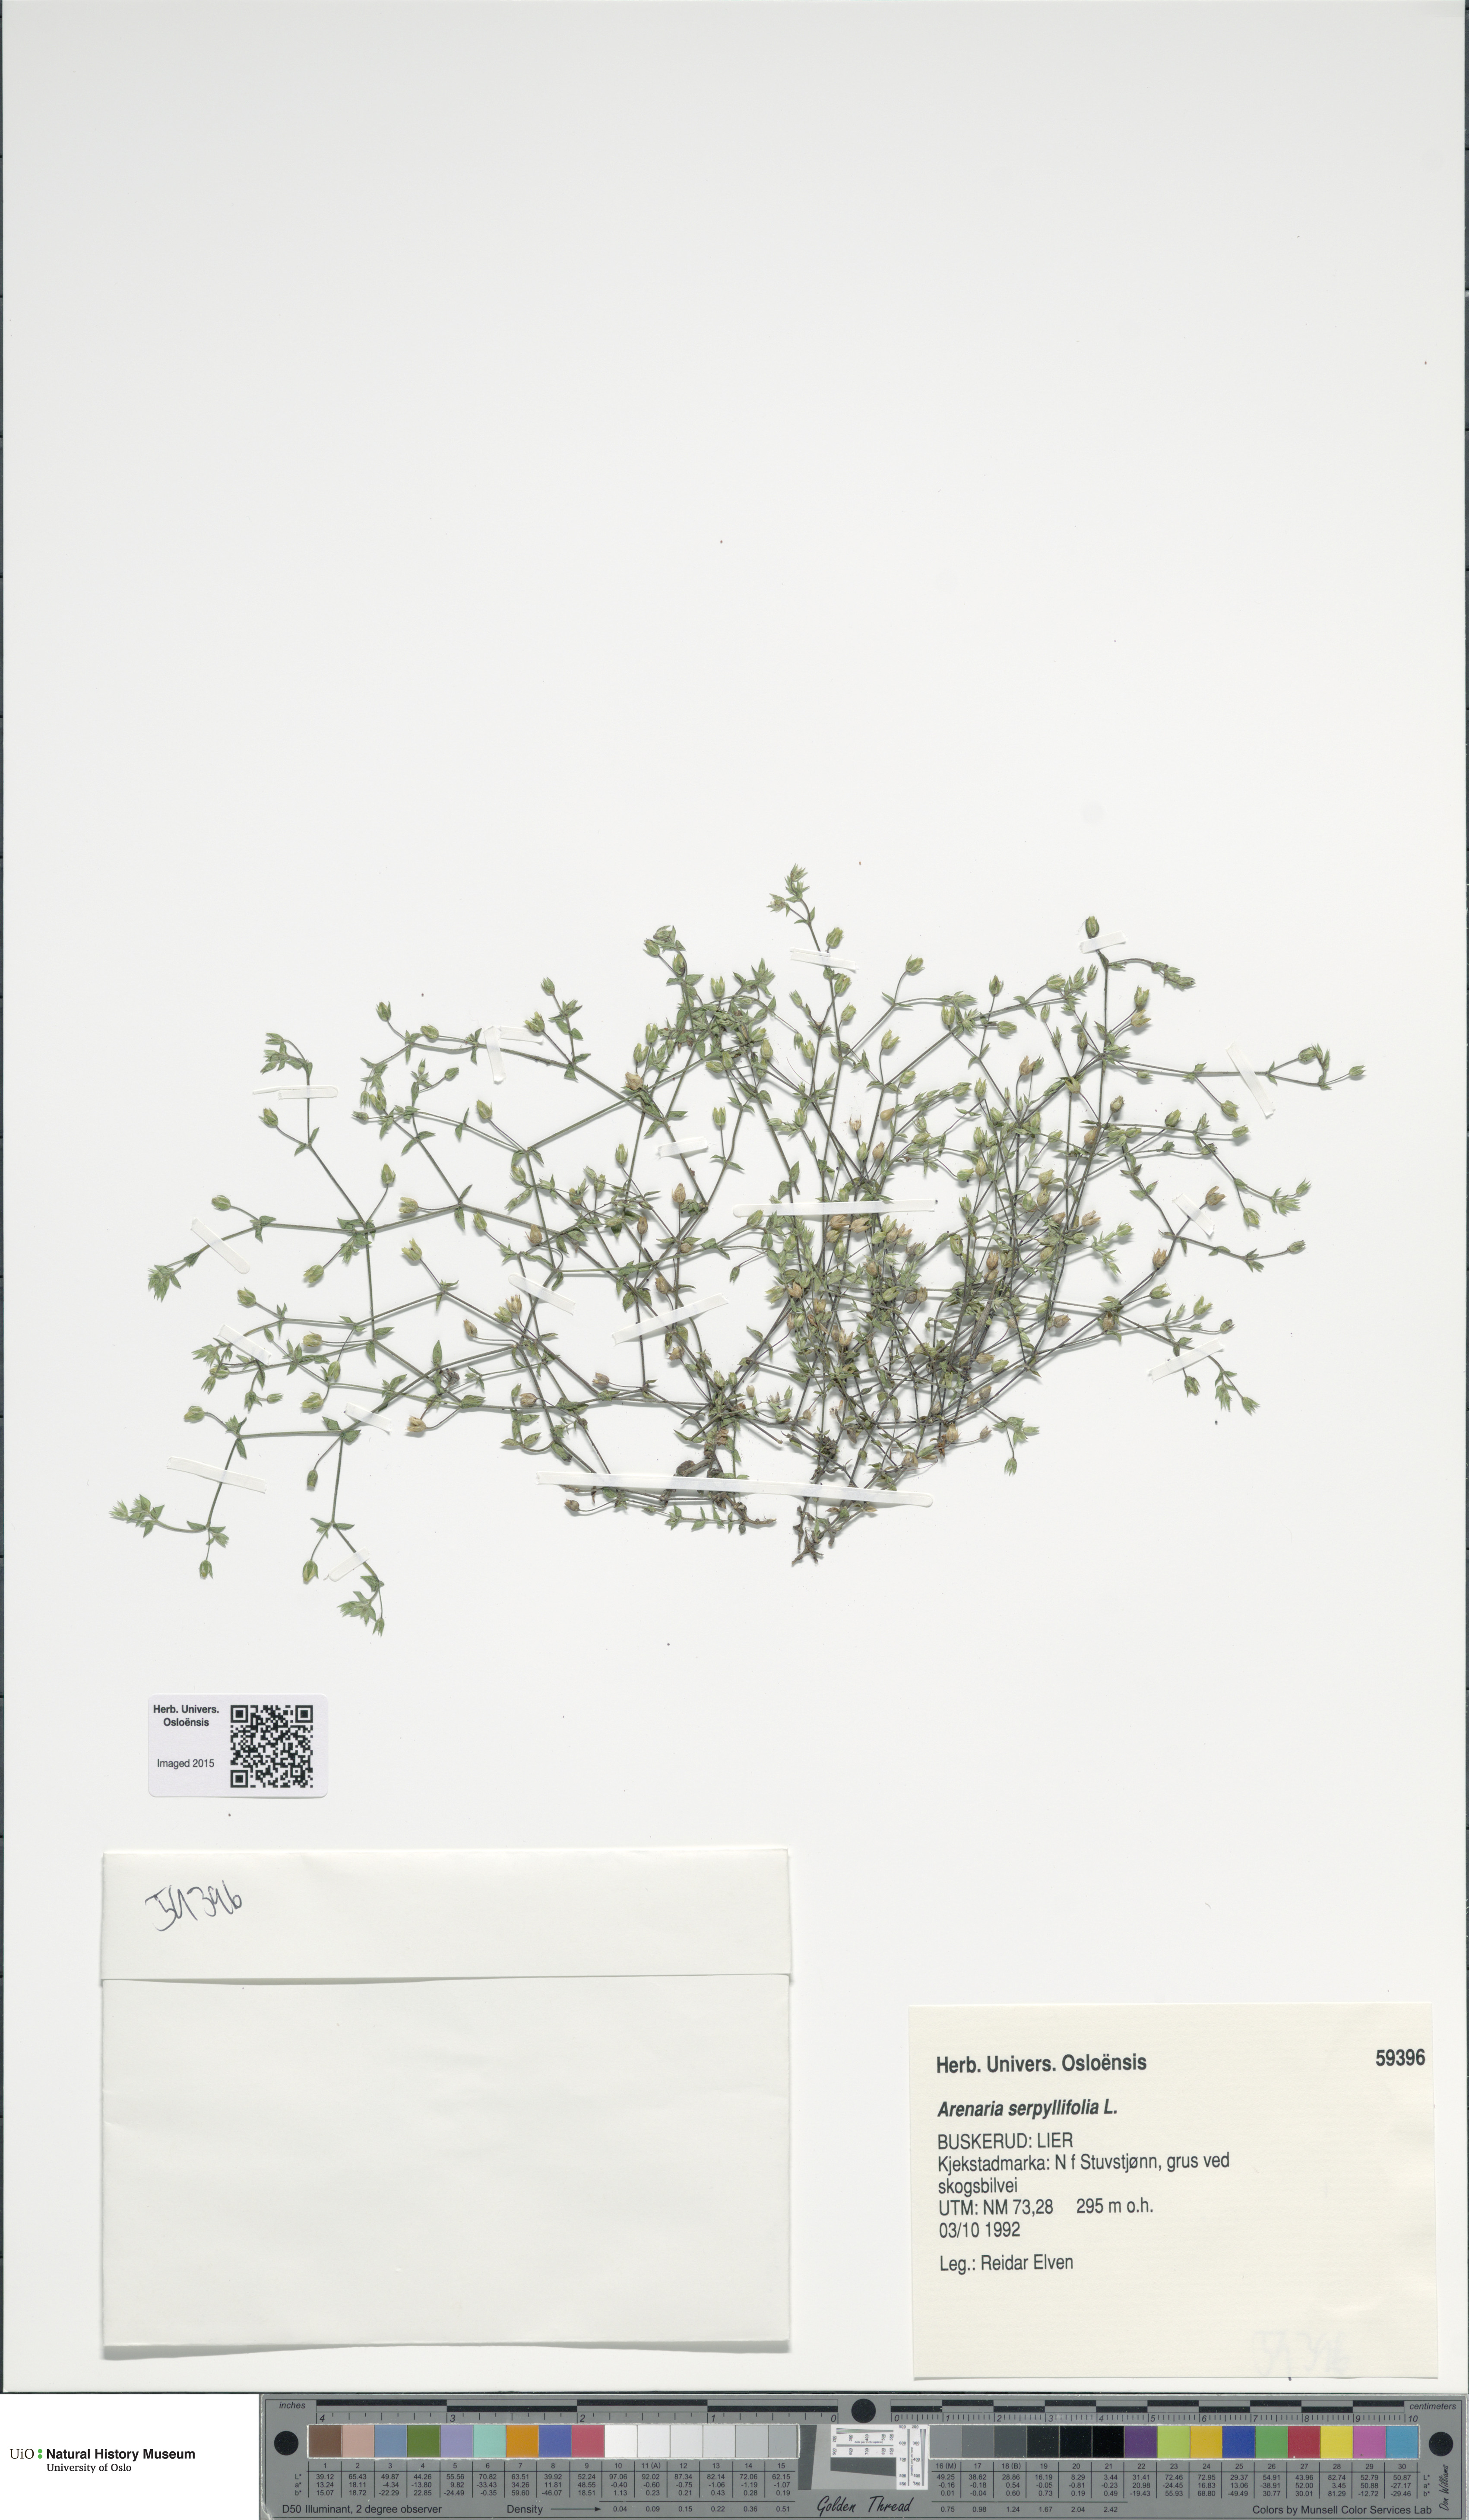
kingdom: Plantae
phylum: Tracheophyta
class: Magnoliopsida
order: Caryophyllales
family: Caryophyllaceae
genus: Arenaria
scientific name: Arenaria serpyllifolia
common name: Thyme-leaved sandwort
